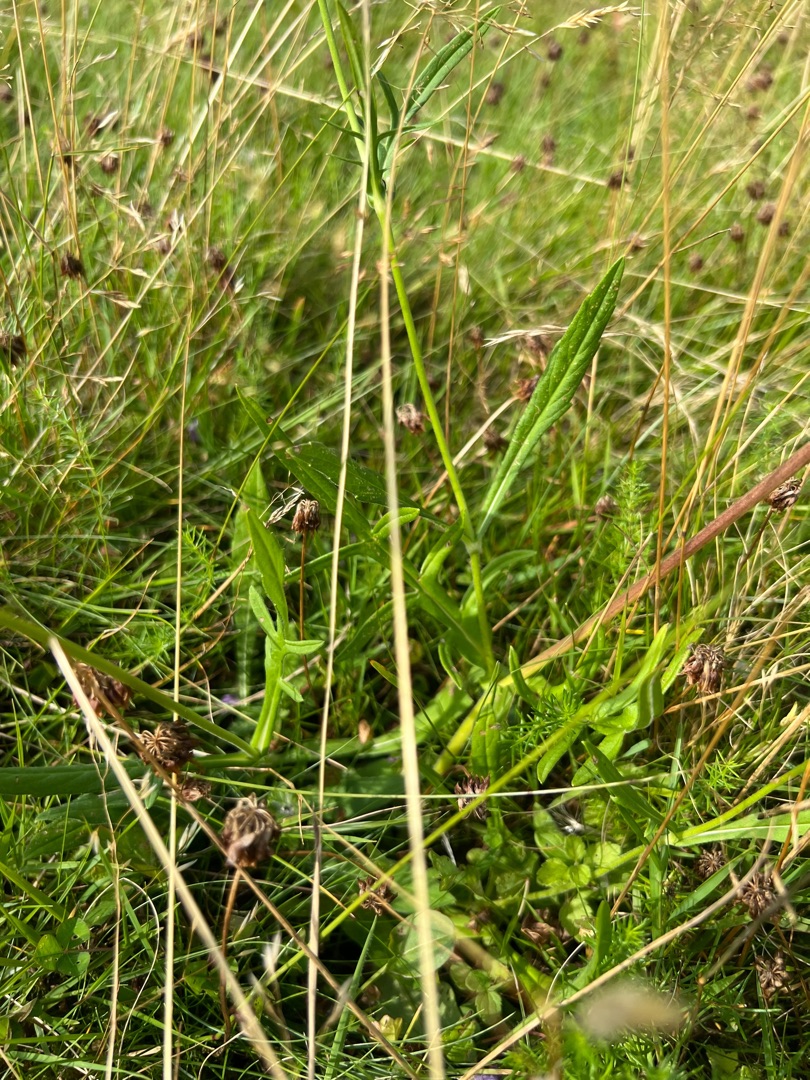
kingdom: Plantae
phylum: Tracheophyta
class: Magnoliopsida
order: Dipsacales
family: Caprifoliaceae
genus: Knautia
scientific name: Knautia arvensis
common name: Blåhat
